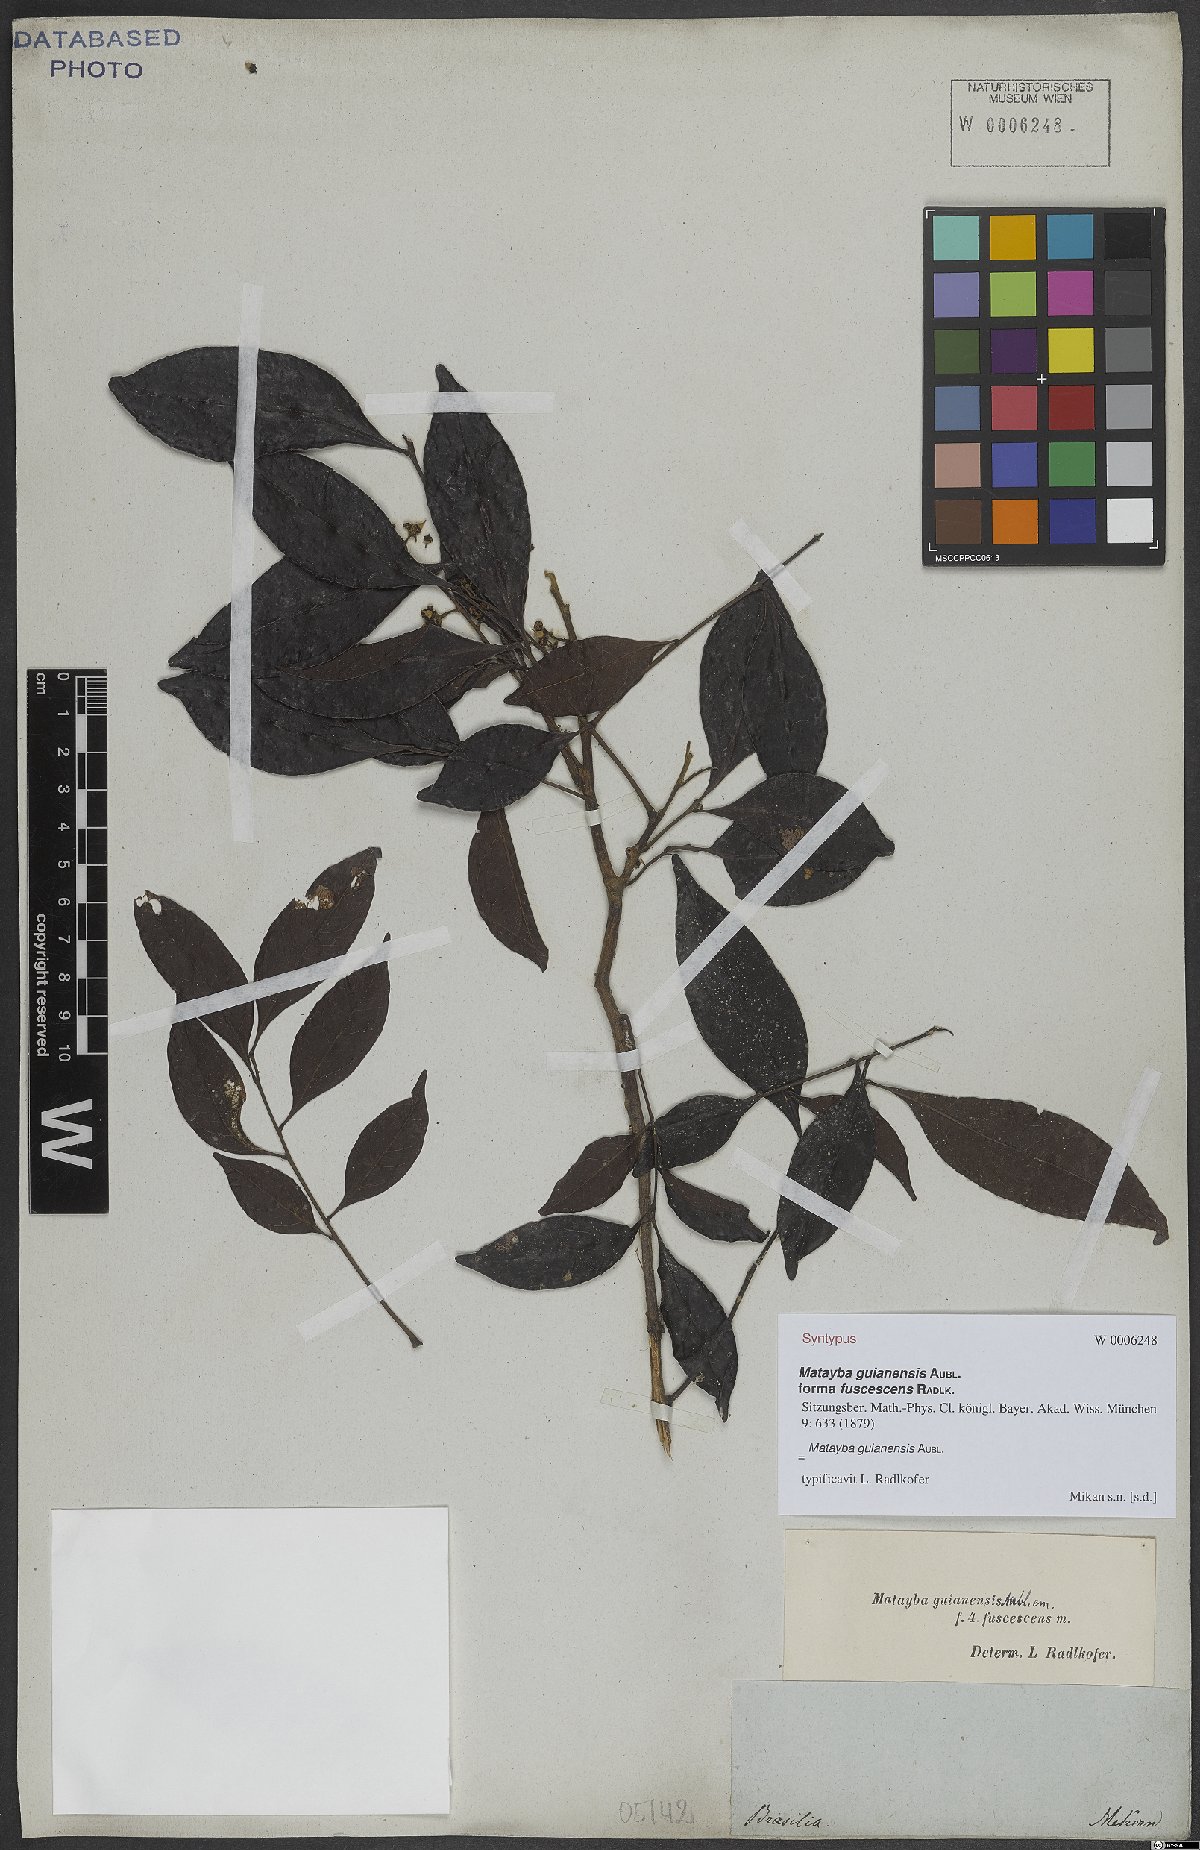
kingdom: Plantae
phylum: Tracheophyta
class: Magnoliopsida
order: Sapindales
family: Sapindaceae
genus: Matayba
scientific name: Matayba guianensis
